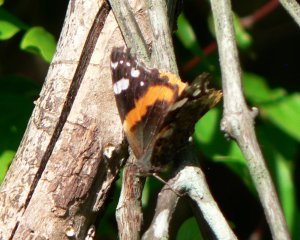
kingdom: Animalia
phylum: Arthropoda
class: Insecta
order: Lepidoptera
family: Nymphalidae
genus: Vanessa
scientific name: Vanessa atalanta
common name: Red Admiral
